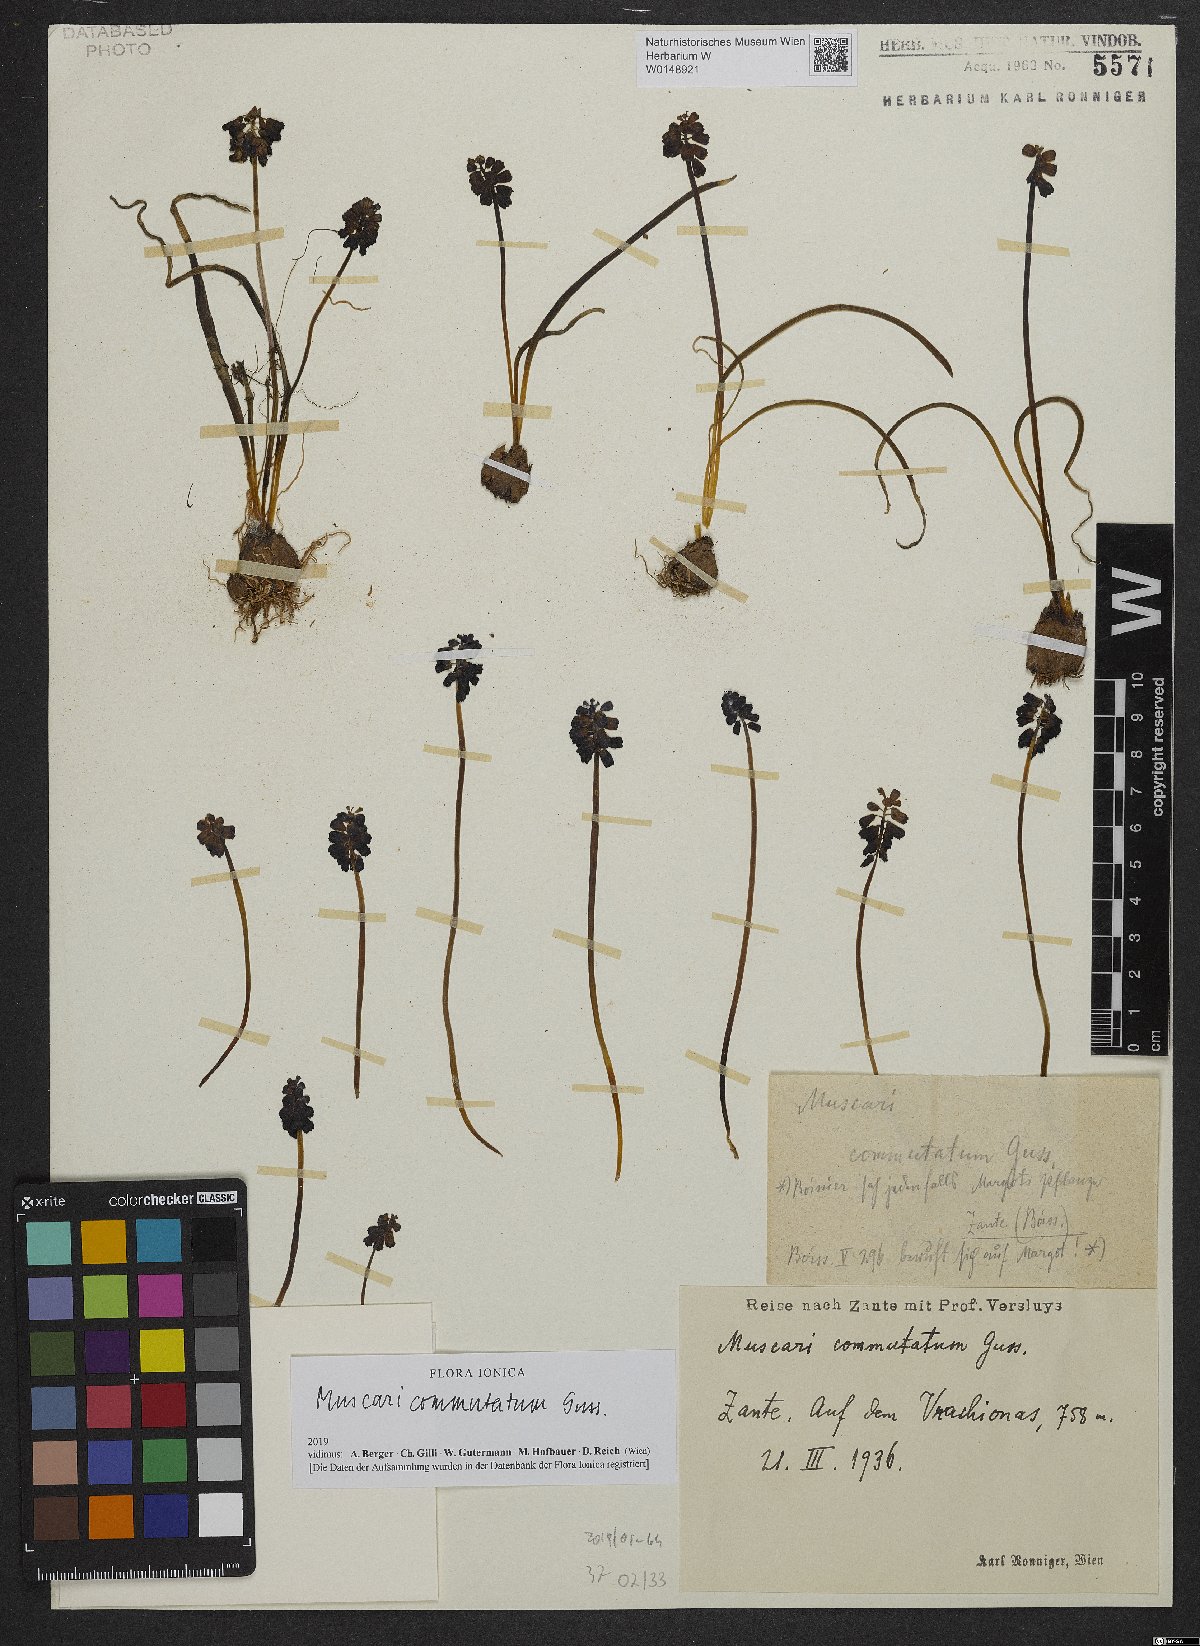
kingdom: Plantae
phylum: Tracheophyta
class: Liliopsida
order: Asparagales
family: Asparagaceae
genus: Muscari
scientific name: Muscari commutatum
